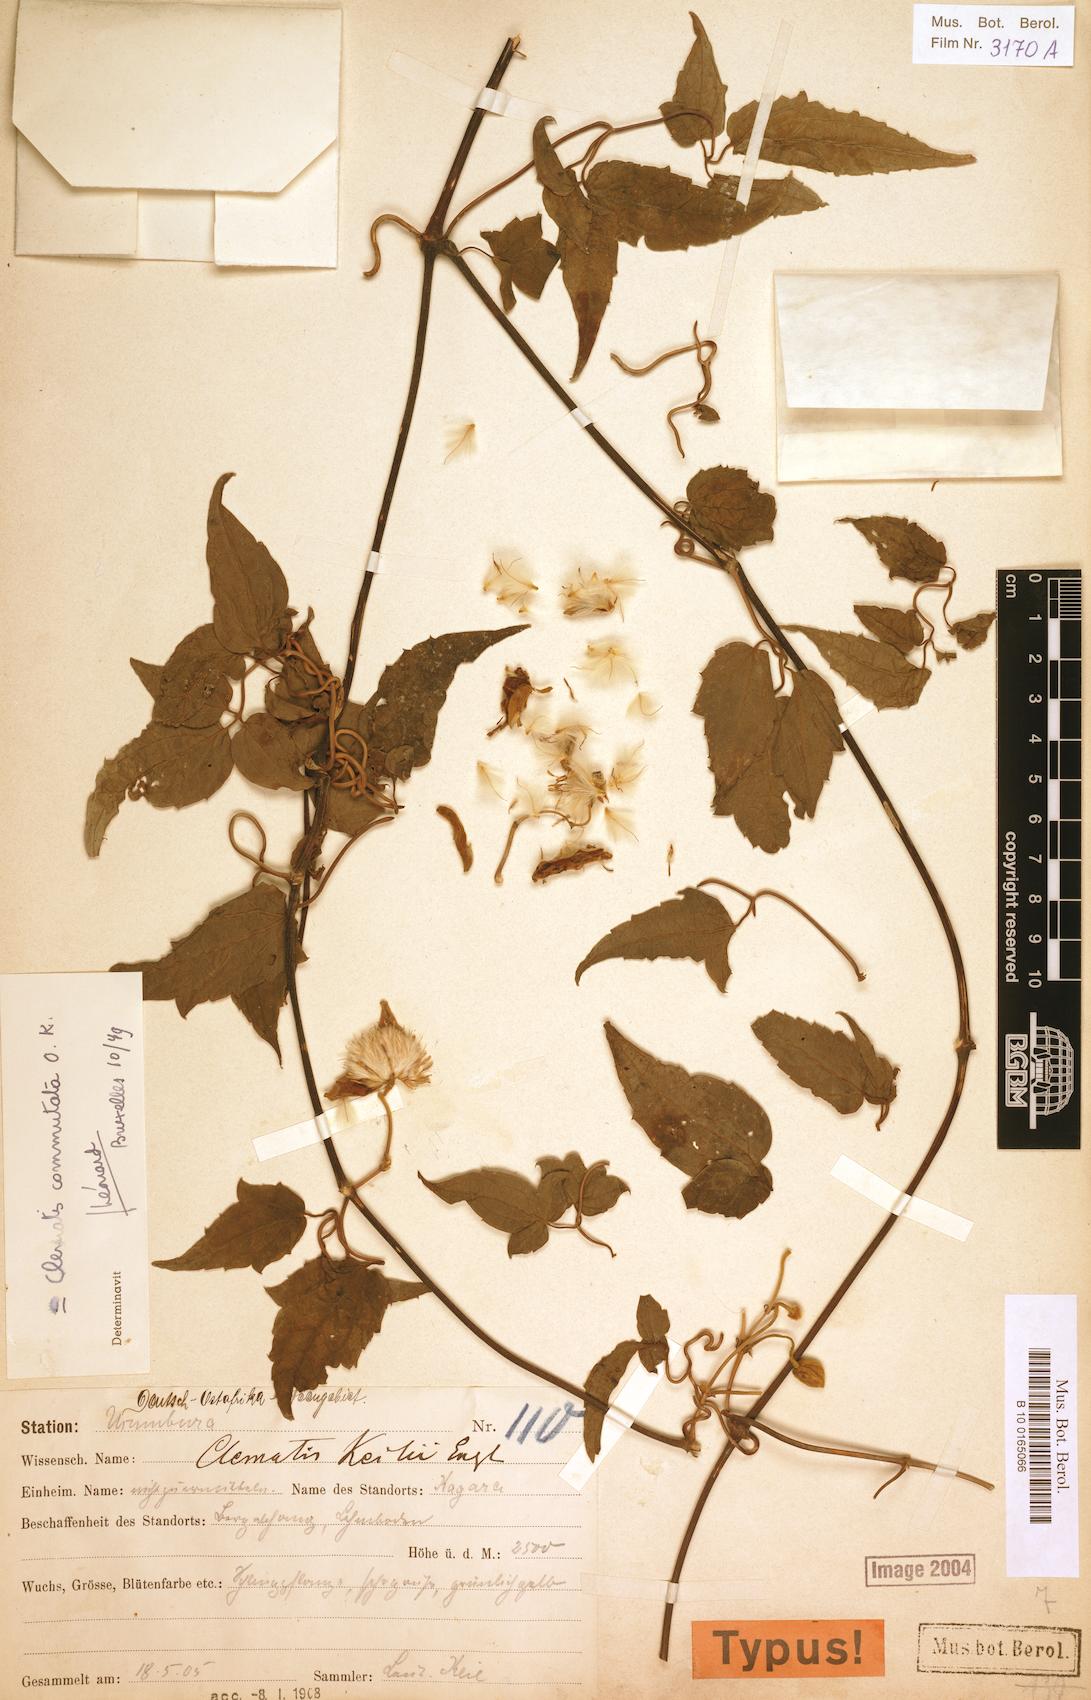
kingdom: Plantae
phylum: Tracheophyta
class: Magnoliopsida
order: Ranunculales
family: Ranunculaceae
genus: Clematis
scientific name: Clematis commutata
